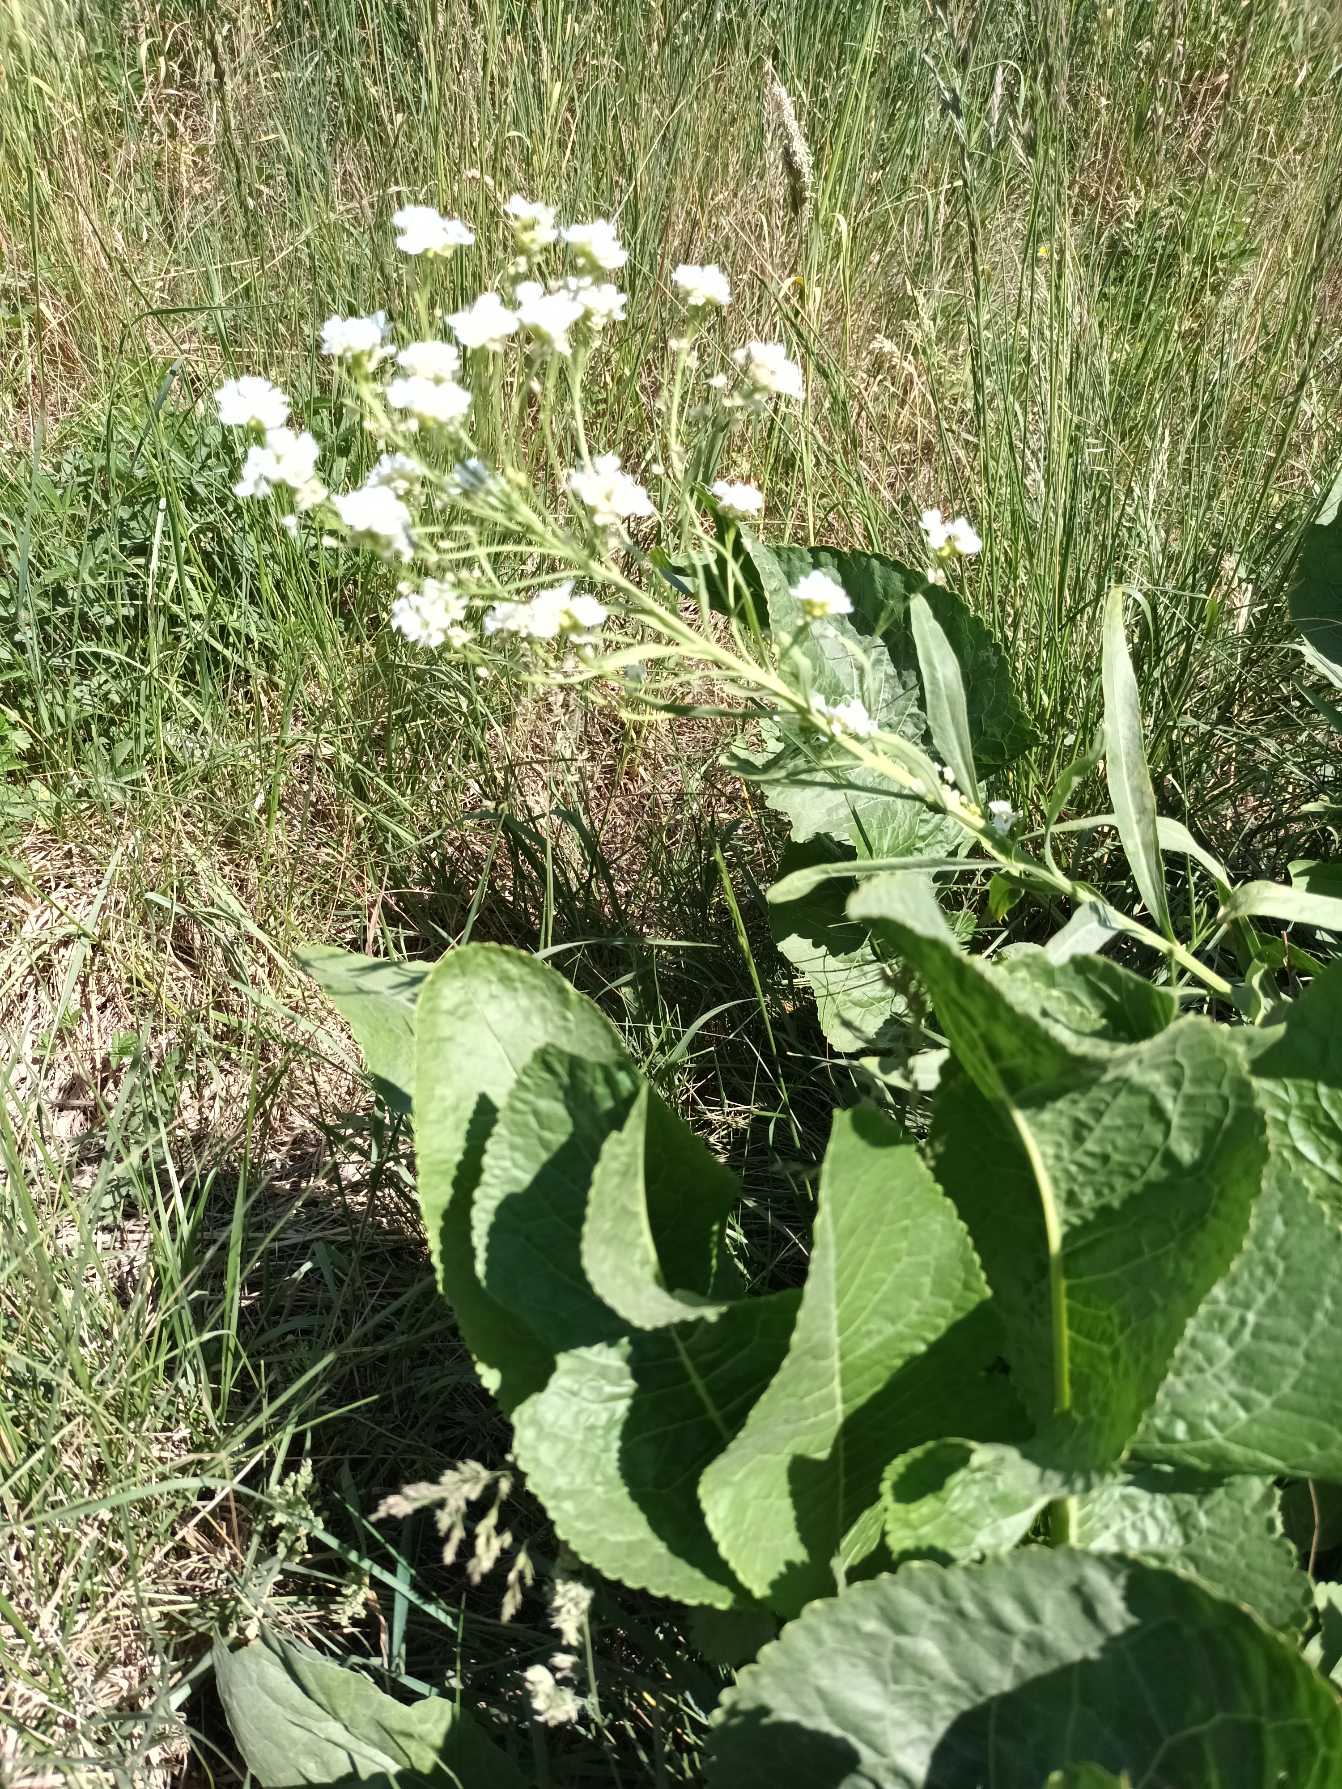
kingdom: Plantae
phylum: Tracheophyta
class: Magnoliopsida
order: Brassicales
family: Brassicaceae
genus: Armoracia
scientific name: Armoracia rusticana
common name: Peberrod
